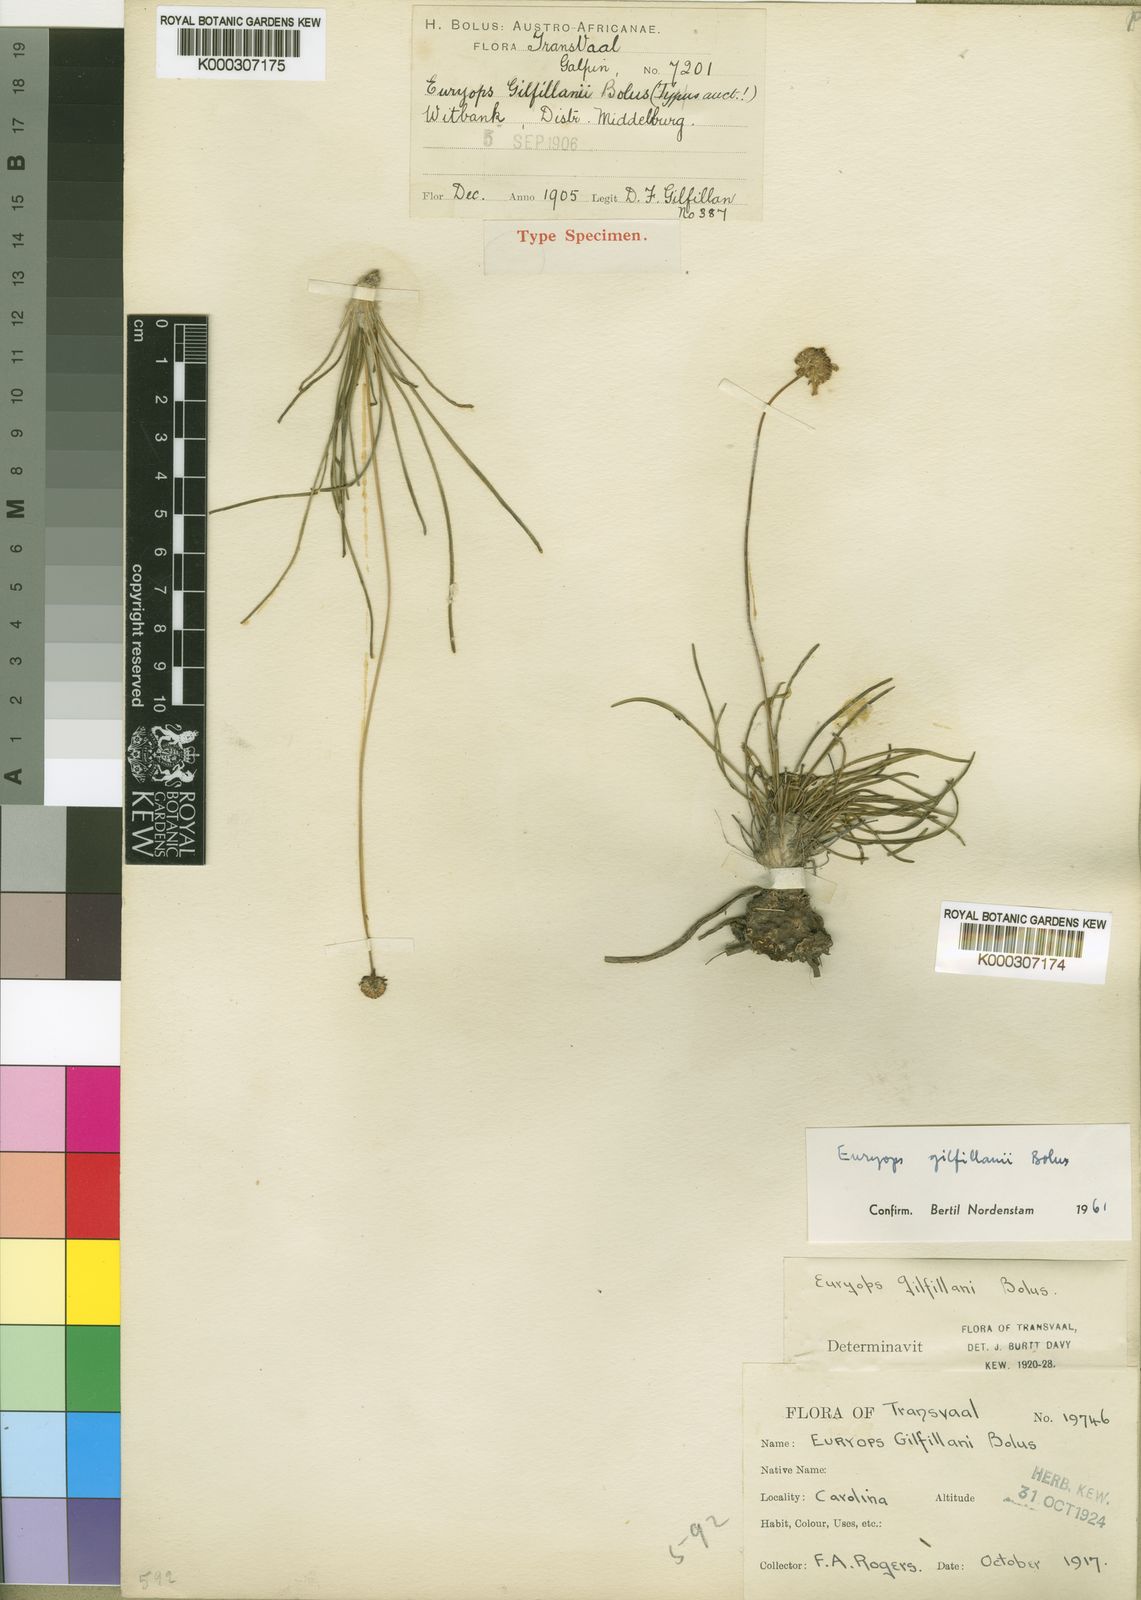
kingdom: Plantae
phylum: Tracheophyta
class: Magnoliopsida
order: Asterales
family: Asteraceae
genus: Euryops
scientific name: Euryops gilfillanii
